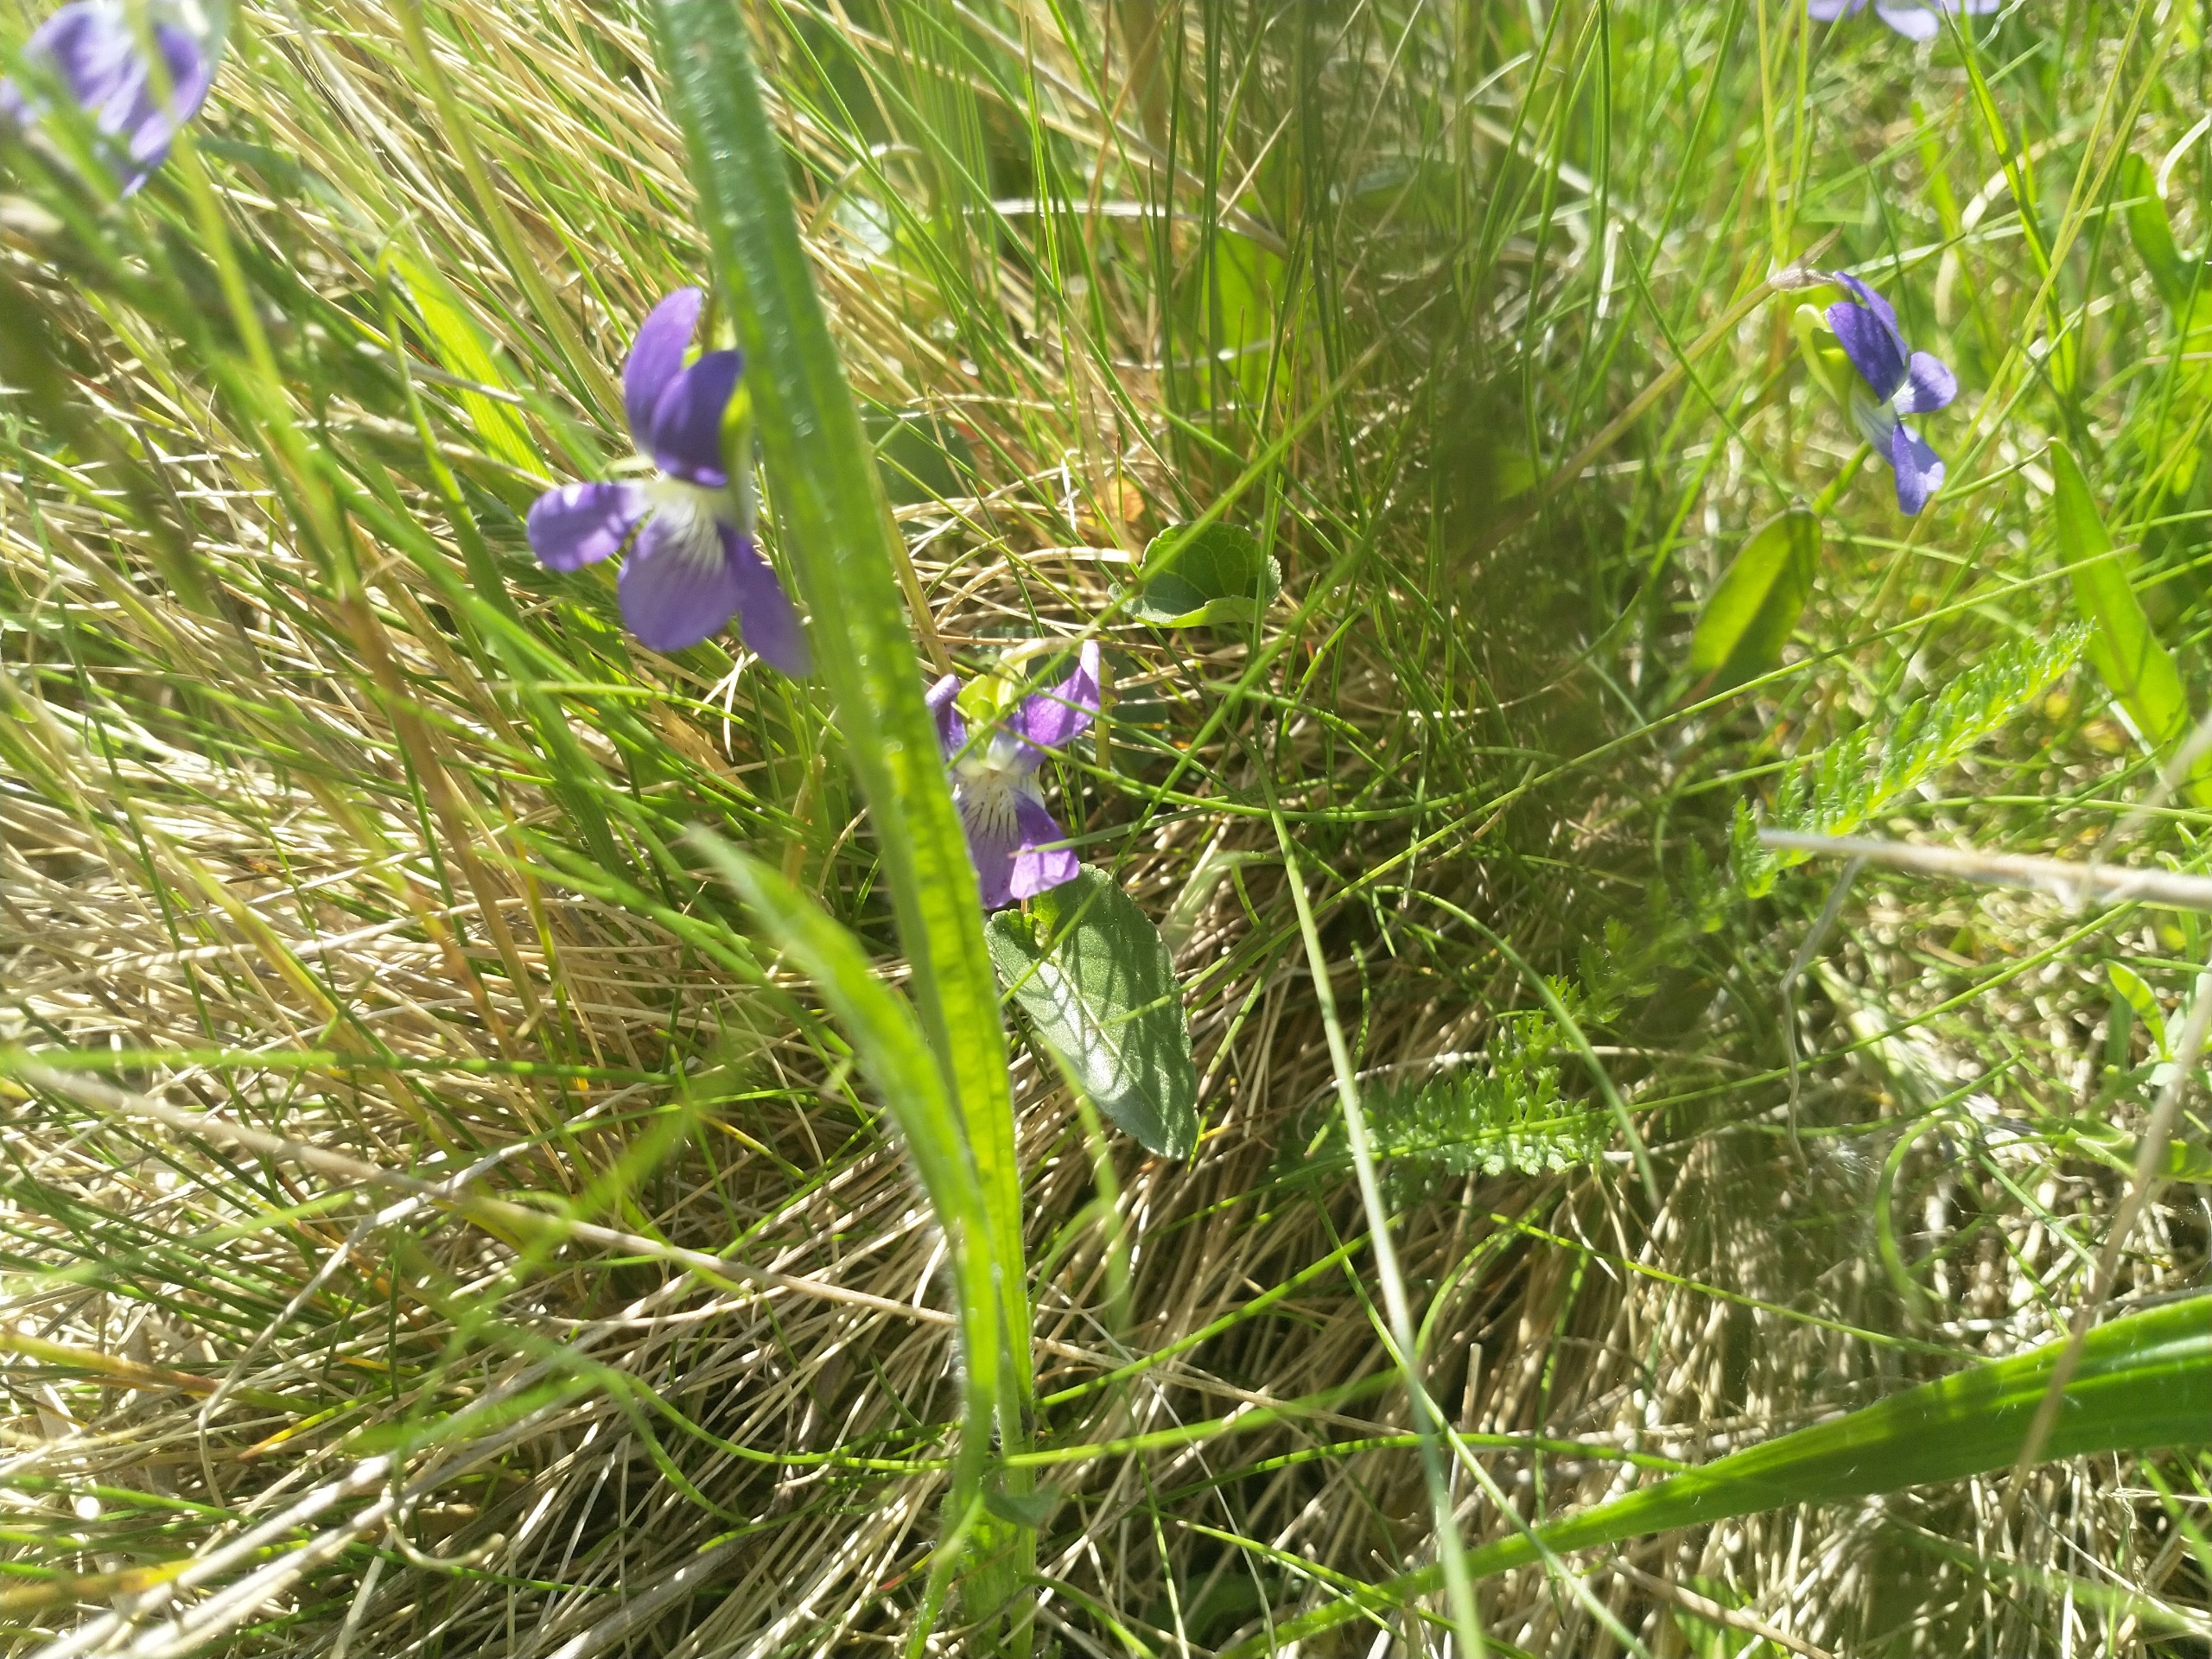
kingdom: Plantae
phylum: Tracheophyta
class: Magnoliopsida
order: Malpighiales
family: Violaceae
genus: Viola
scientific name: Viola canina
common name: Hunde-viol
